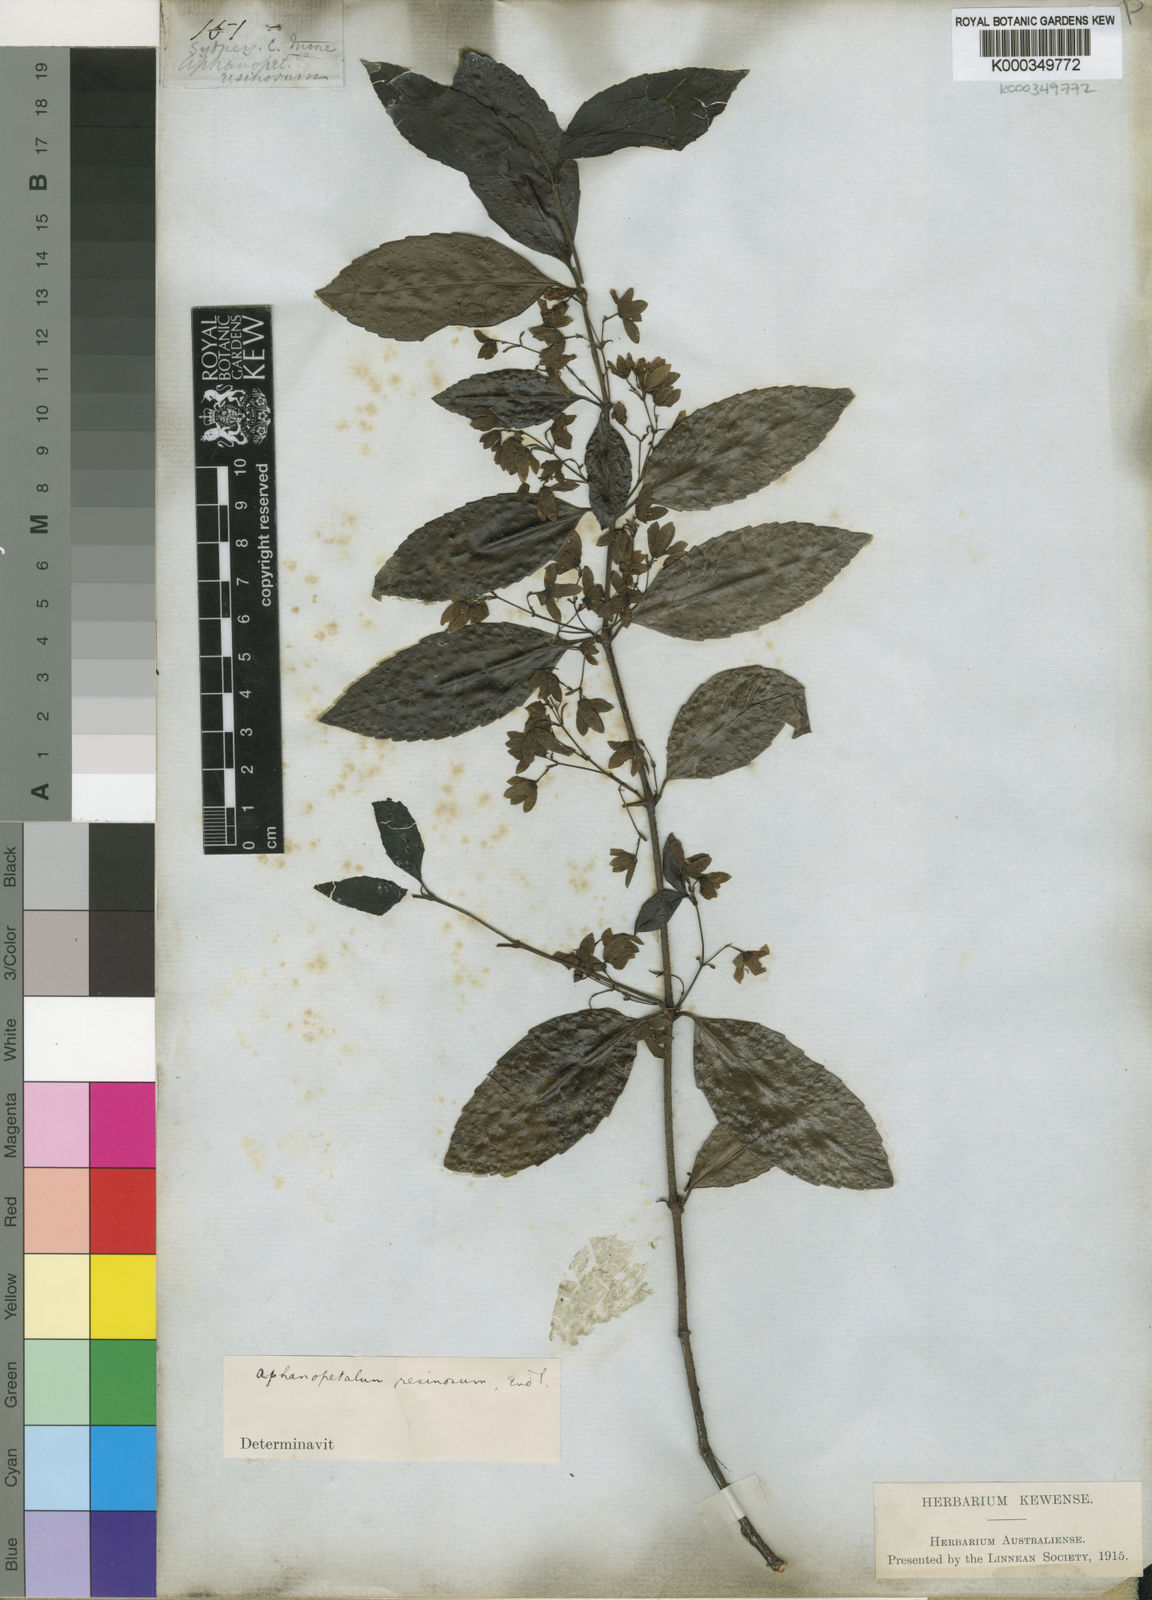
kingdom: Plantae
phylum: Tracheophyta
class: Magnoliopsida
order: Saxifragales
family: Aphanopetalaceae
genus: Aphanopetalum
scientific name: Aphanopetalum resinosum
